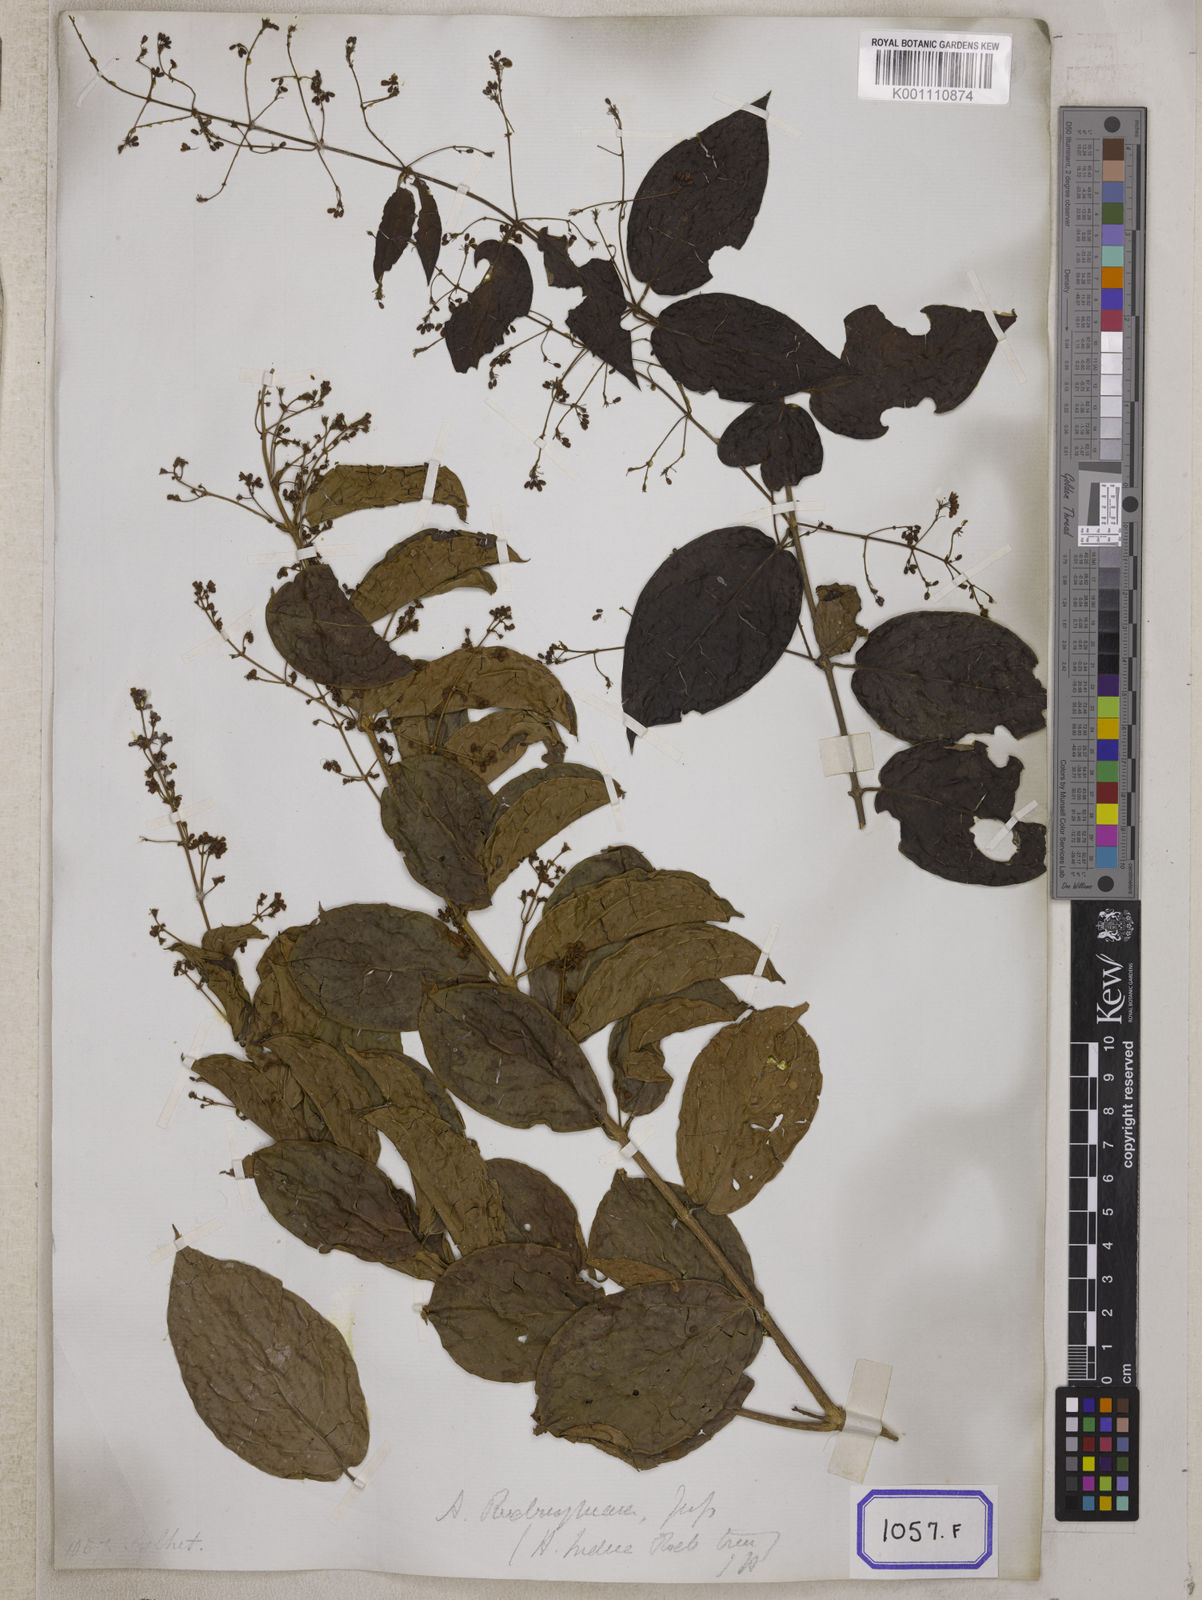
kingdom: Plantae
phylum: Tracheophyta
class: Magnoliopsida
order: Malpighiales
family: Malpighiaceae
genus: Aspidopterys
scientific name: Aspidopterys indica
